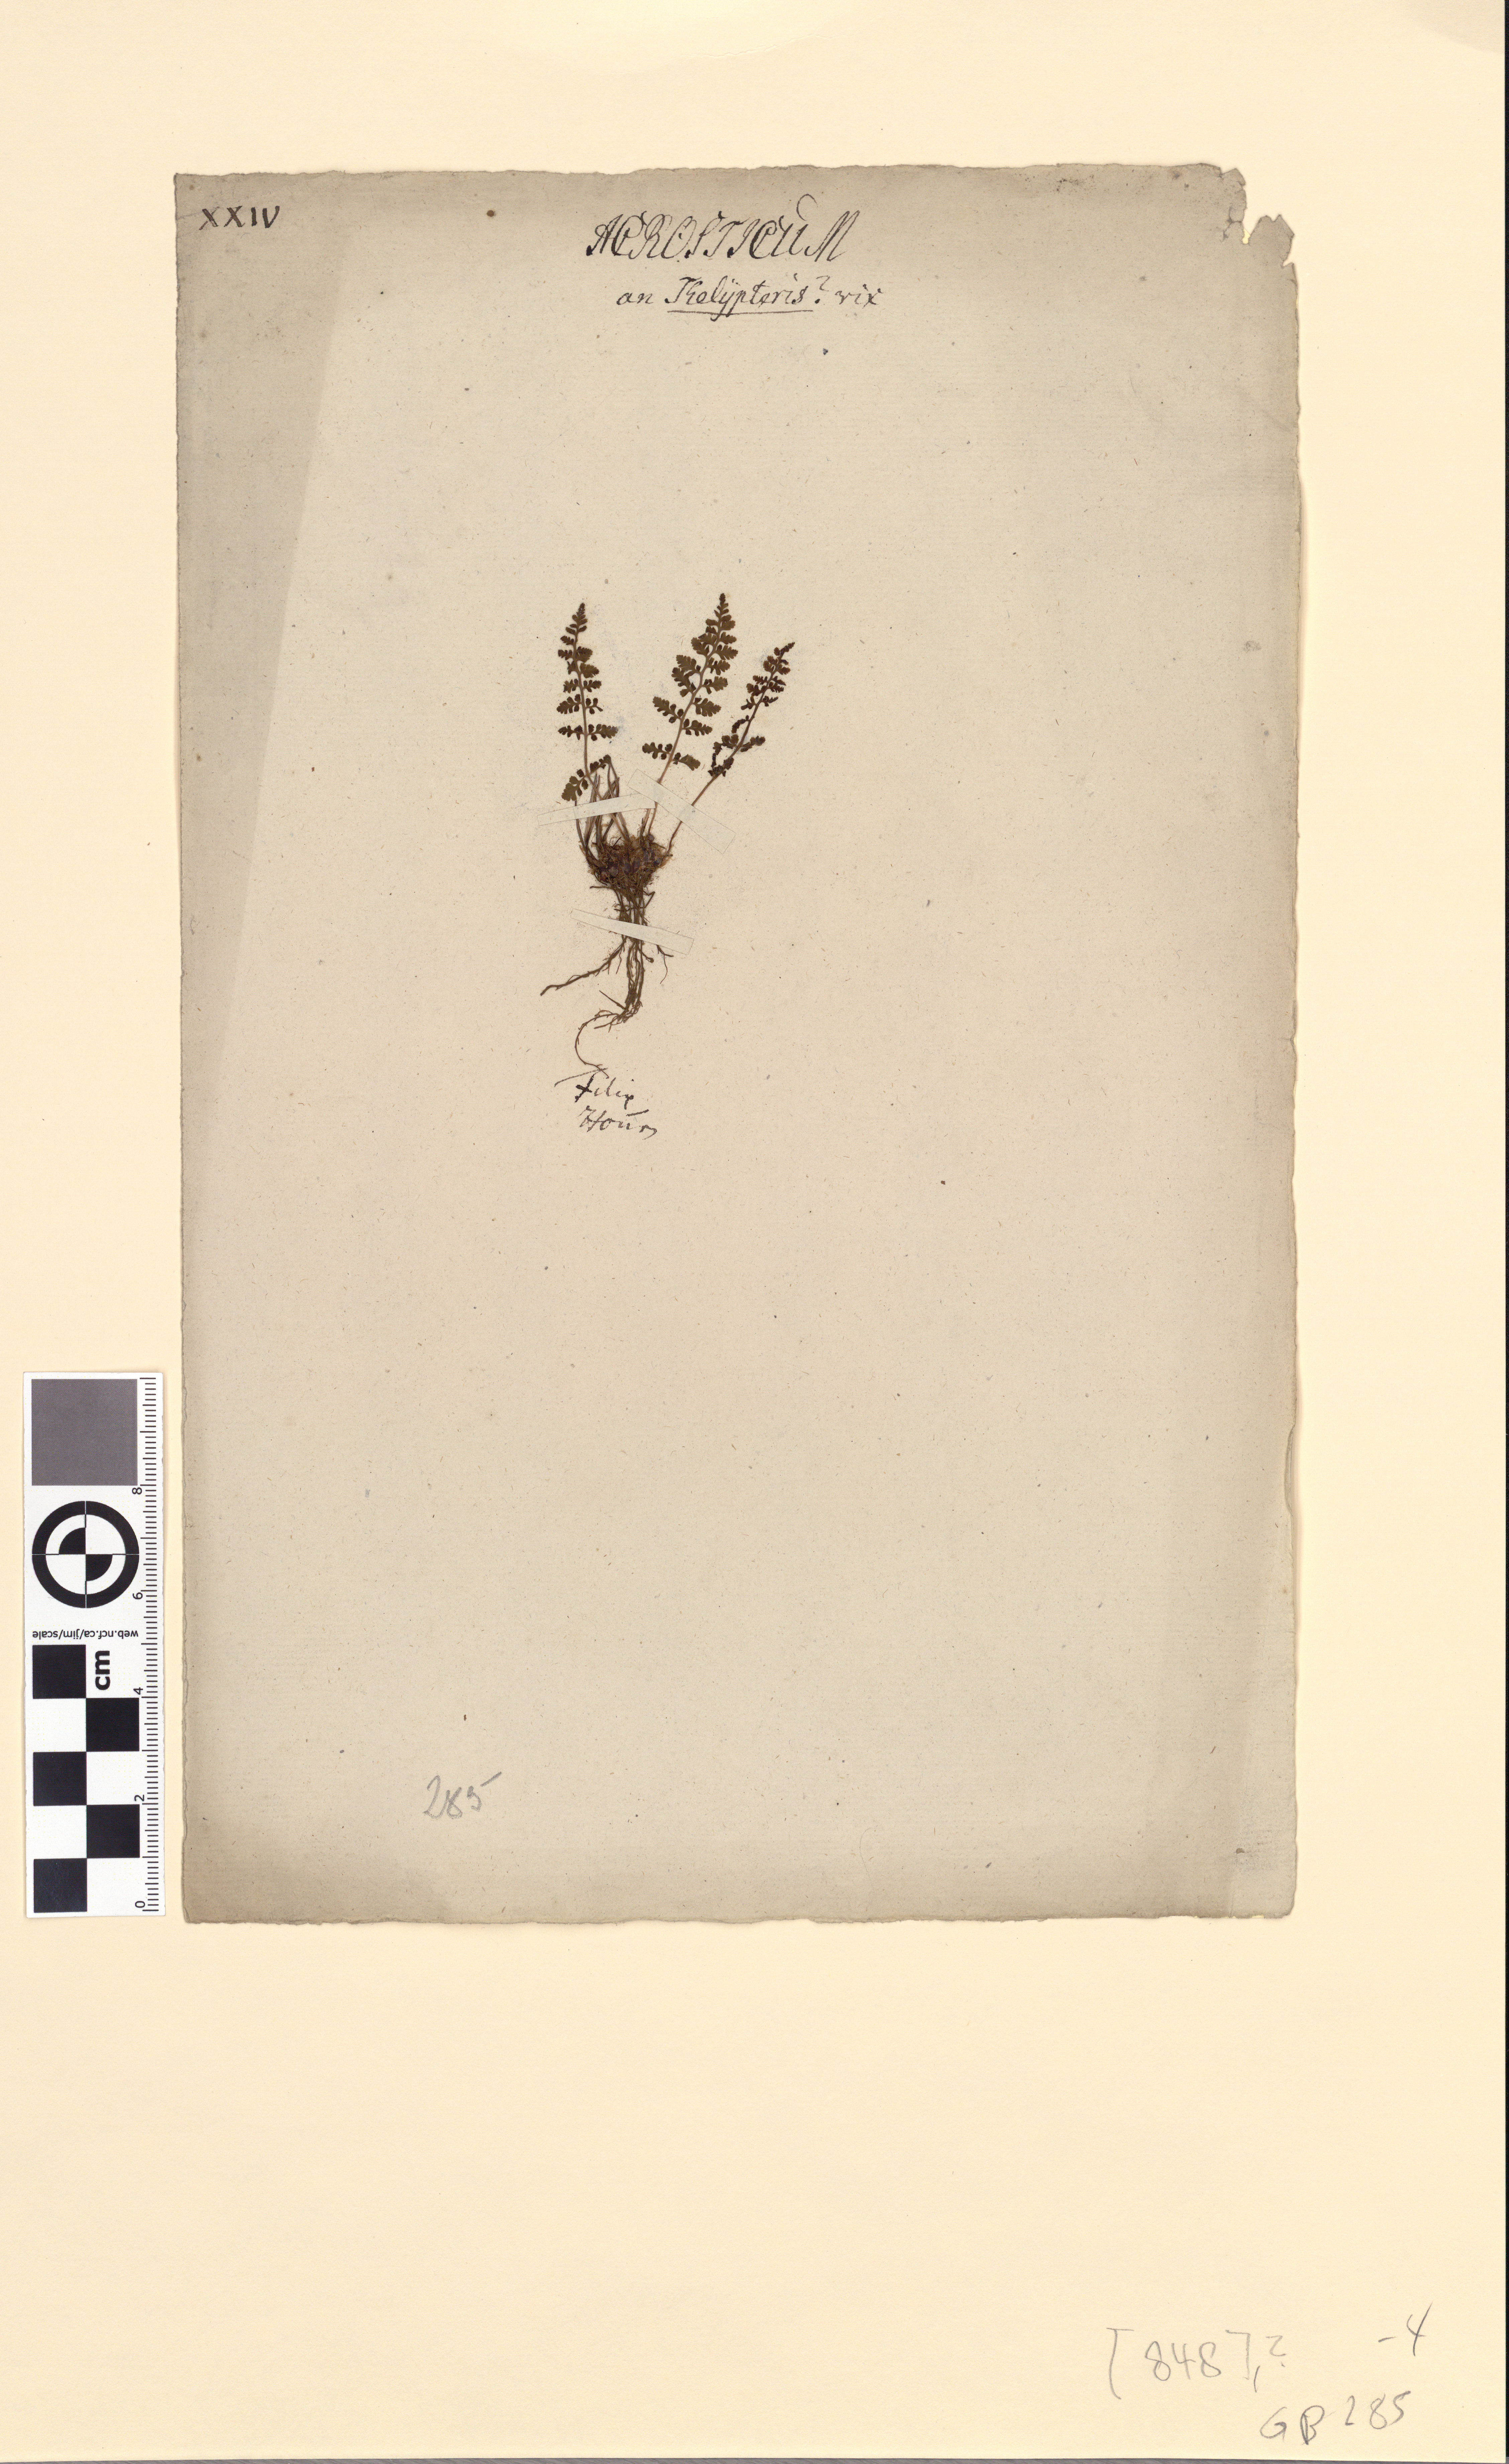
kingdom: Plantae
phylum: Tracheophyta
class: Polypodiopsida
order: Polypodiales
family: Cystopteridaceae
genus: Cystopteris
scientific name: Cystopteris fragilis
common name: Brittle bladder fern
